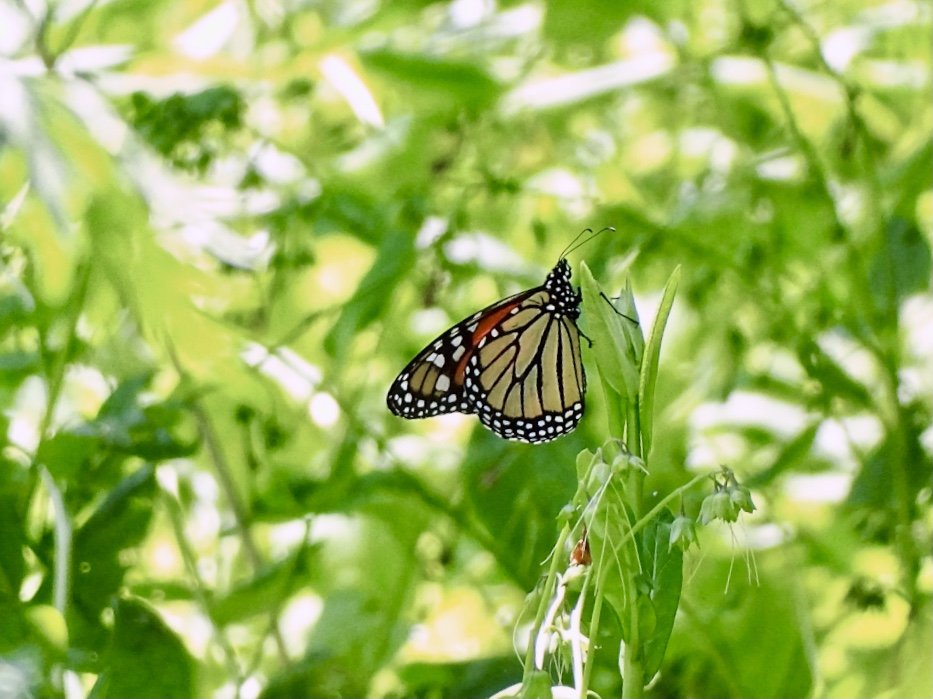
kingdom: Animalia
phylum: Arthropoda
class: Insecta
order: Lepidoptera
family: Nymphalidae
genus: Danaus
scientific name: Danaus plexippus
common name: Monarch
